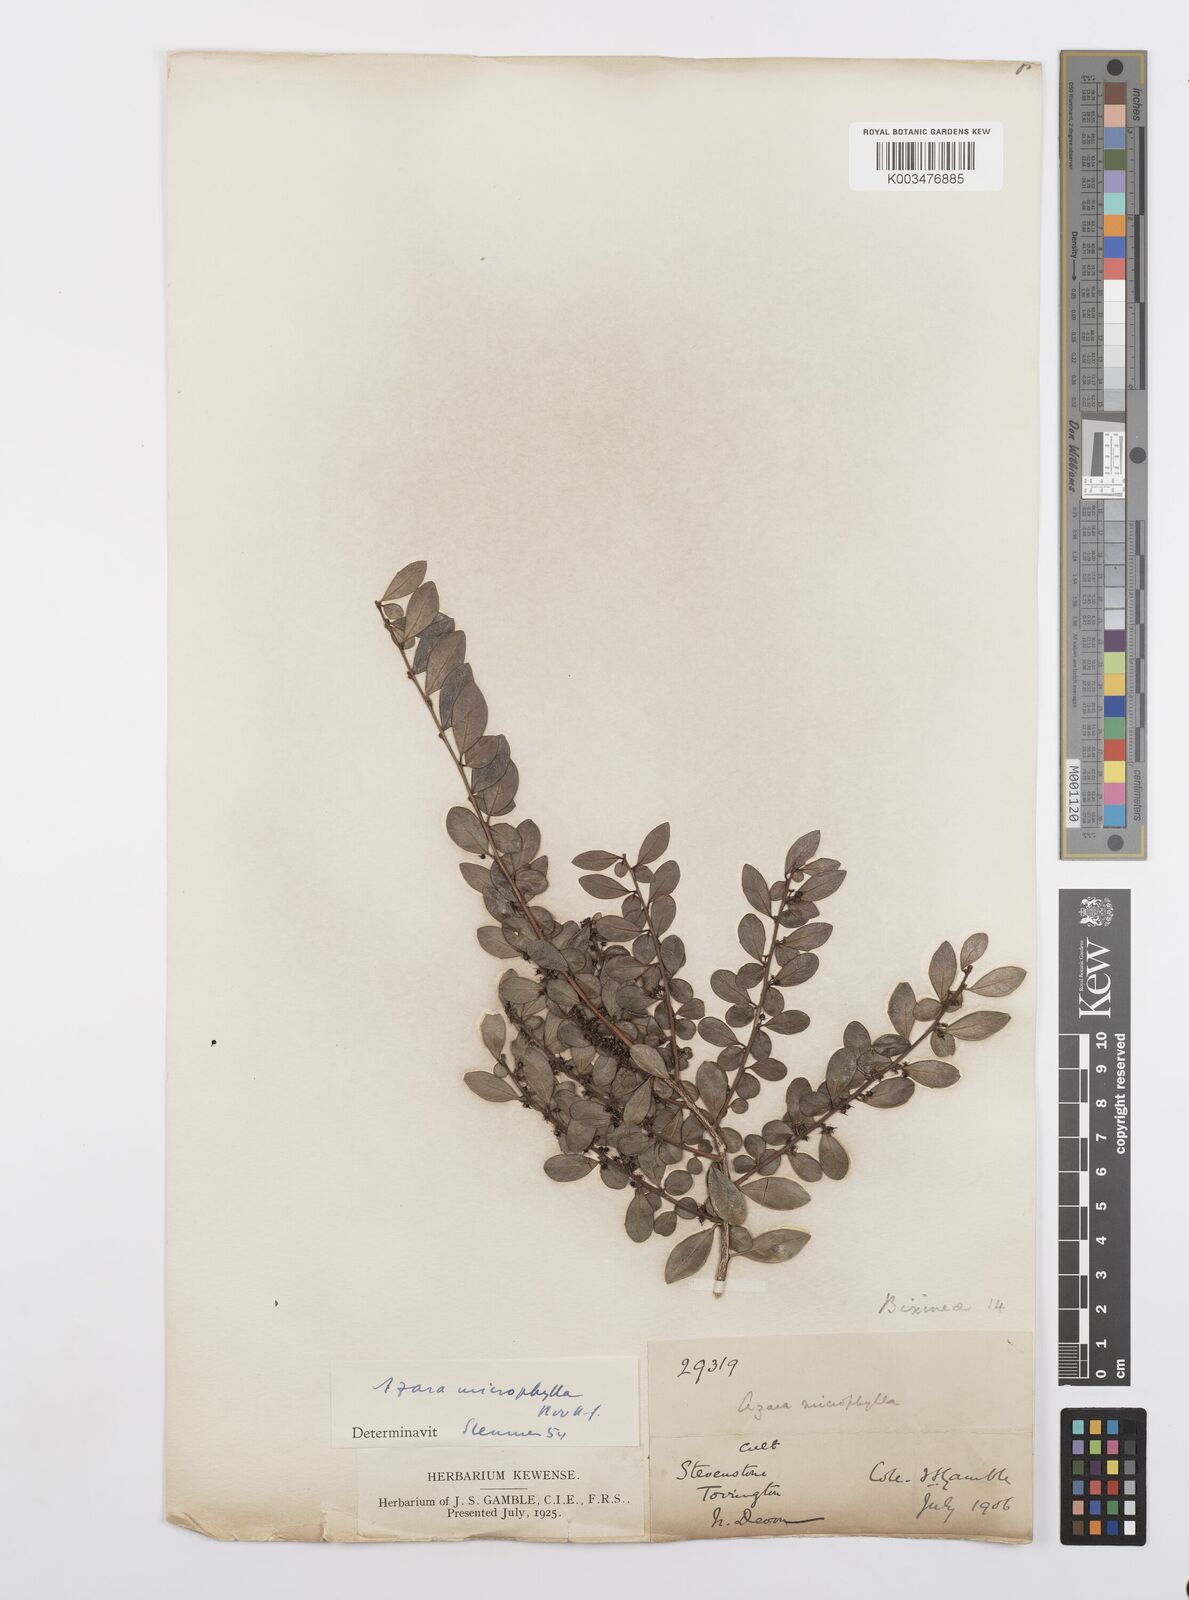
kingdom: Plantae
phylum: Tracheophyta
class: Magnoliopsida
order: Malpighiales
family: Salicaceae
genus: Azara
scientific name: Azara microphylla
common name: Box-leaf azara
